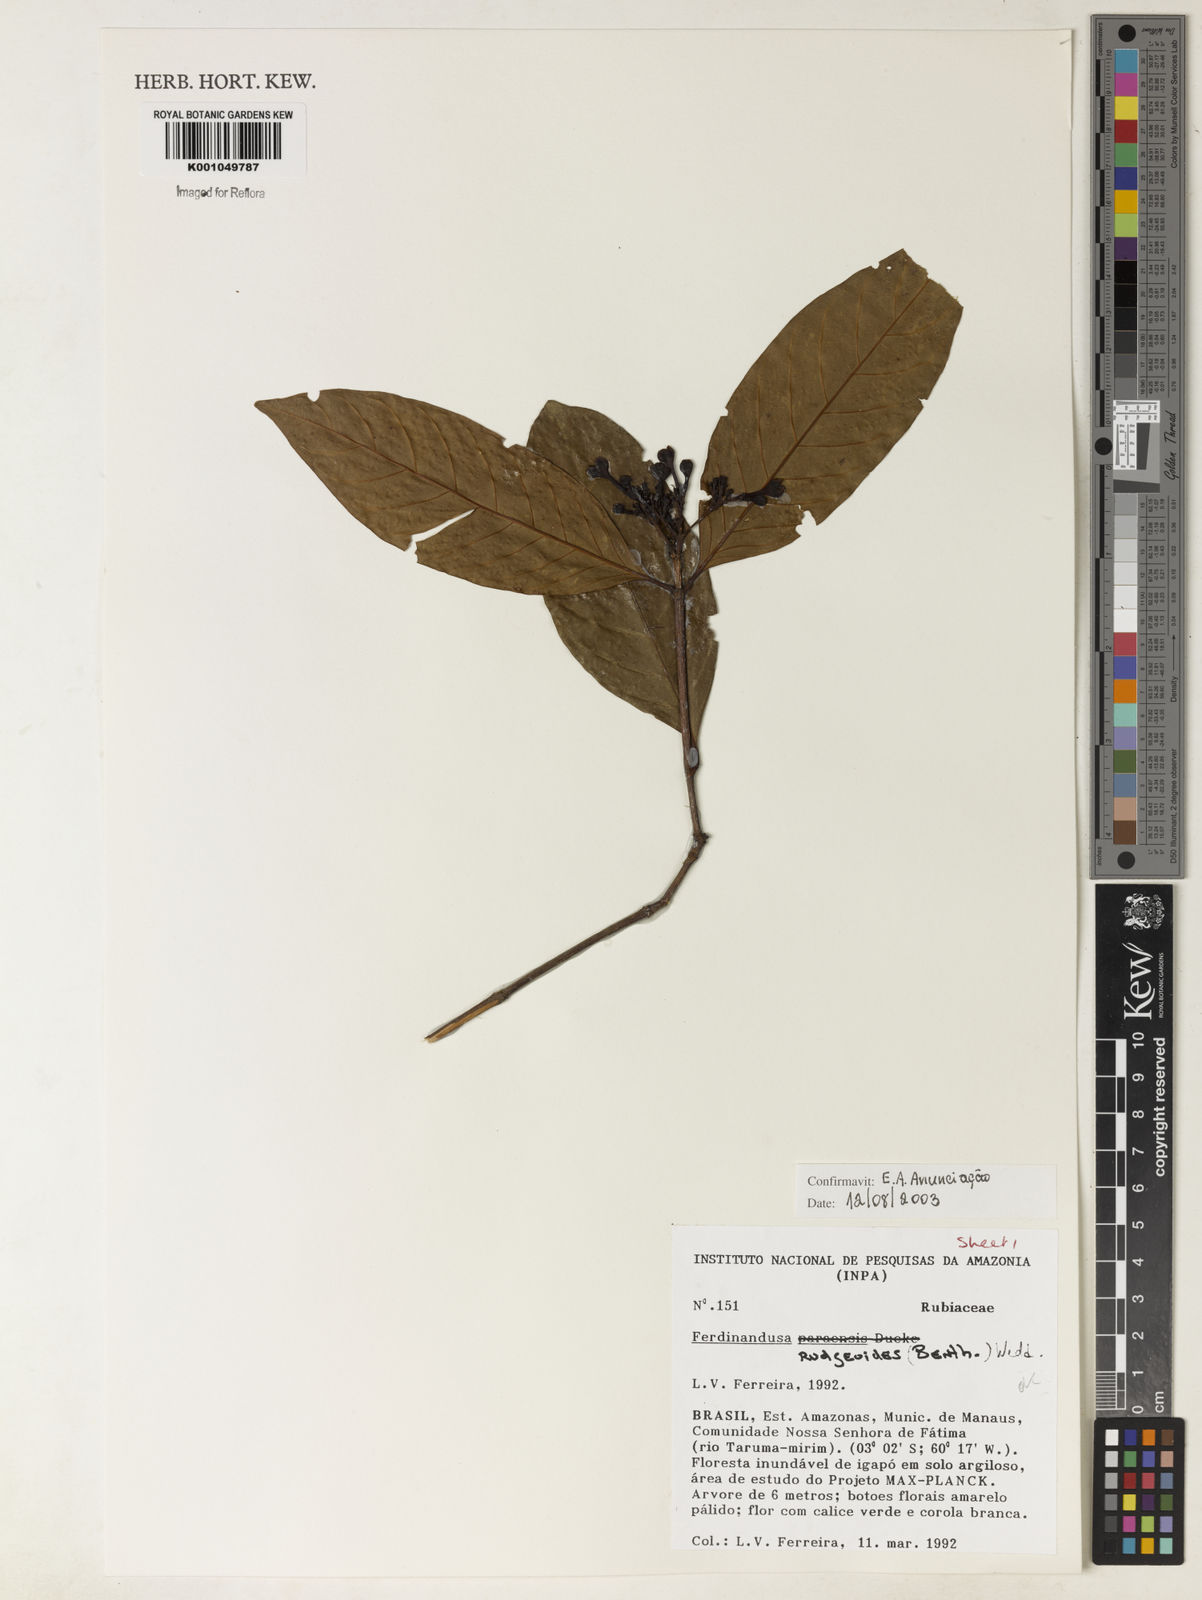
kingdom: Plantae
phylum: Tracheophyta
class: Magnoliopsida
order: Gentianales
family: Rubiaceae
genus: Ferdinandusa
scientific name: Ferdinandusa rudgeoides
